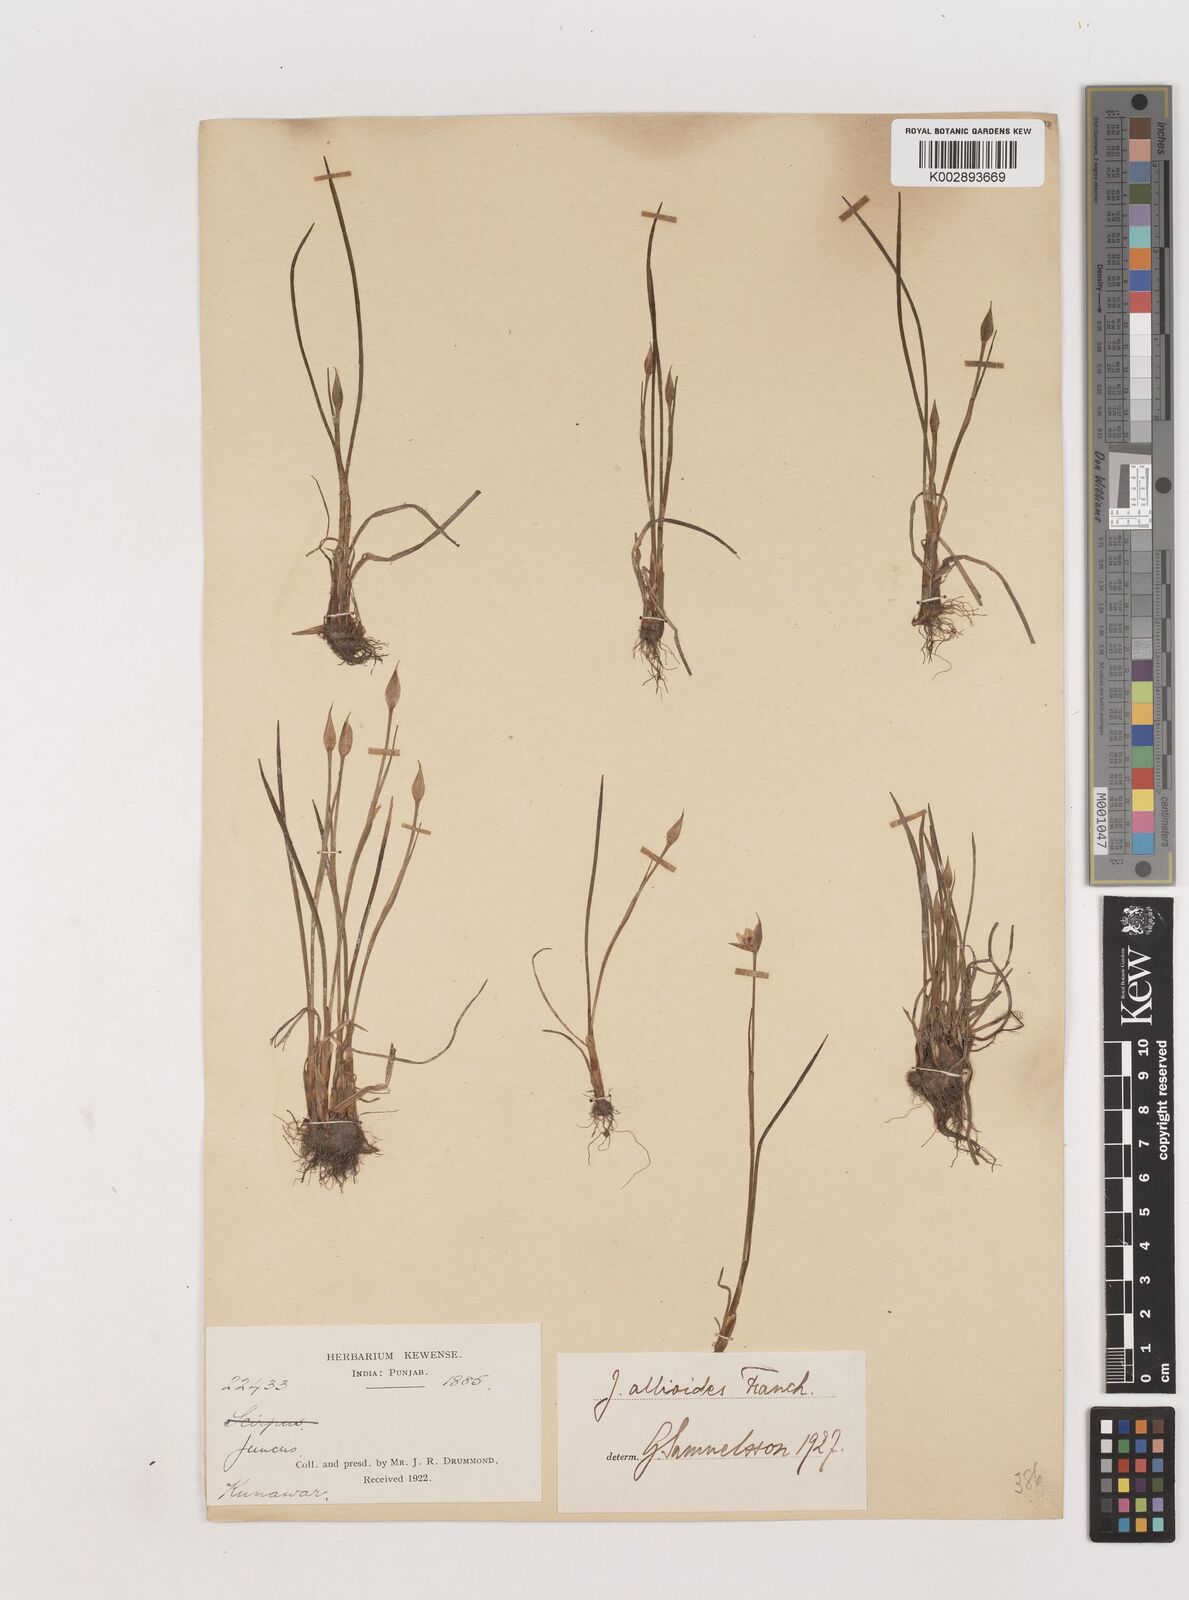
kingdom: Plantae
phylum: Tracheophyta
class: Liliopsida
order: Poales
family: Juncaceae
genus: Juncus
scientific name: Juncus allioides
